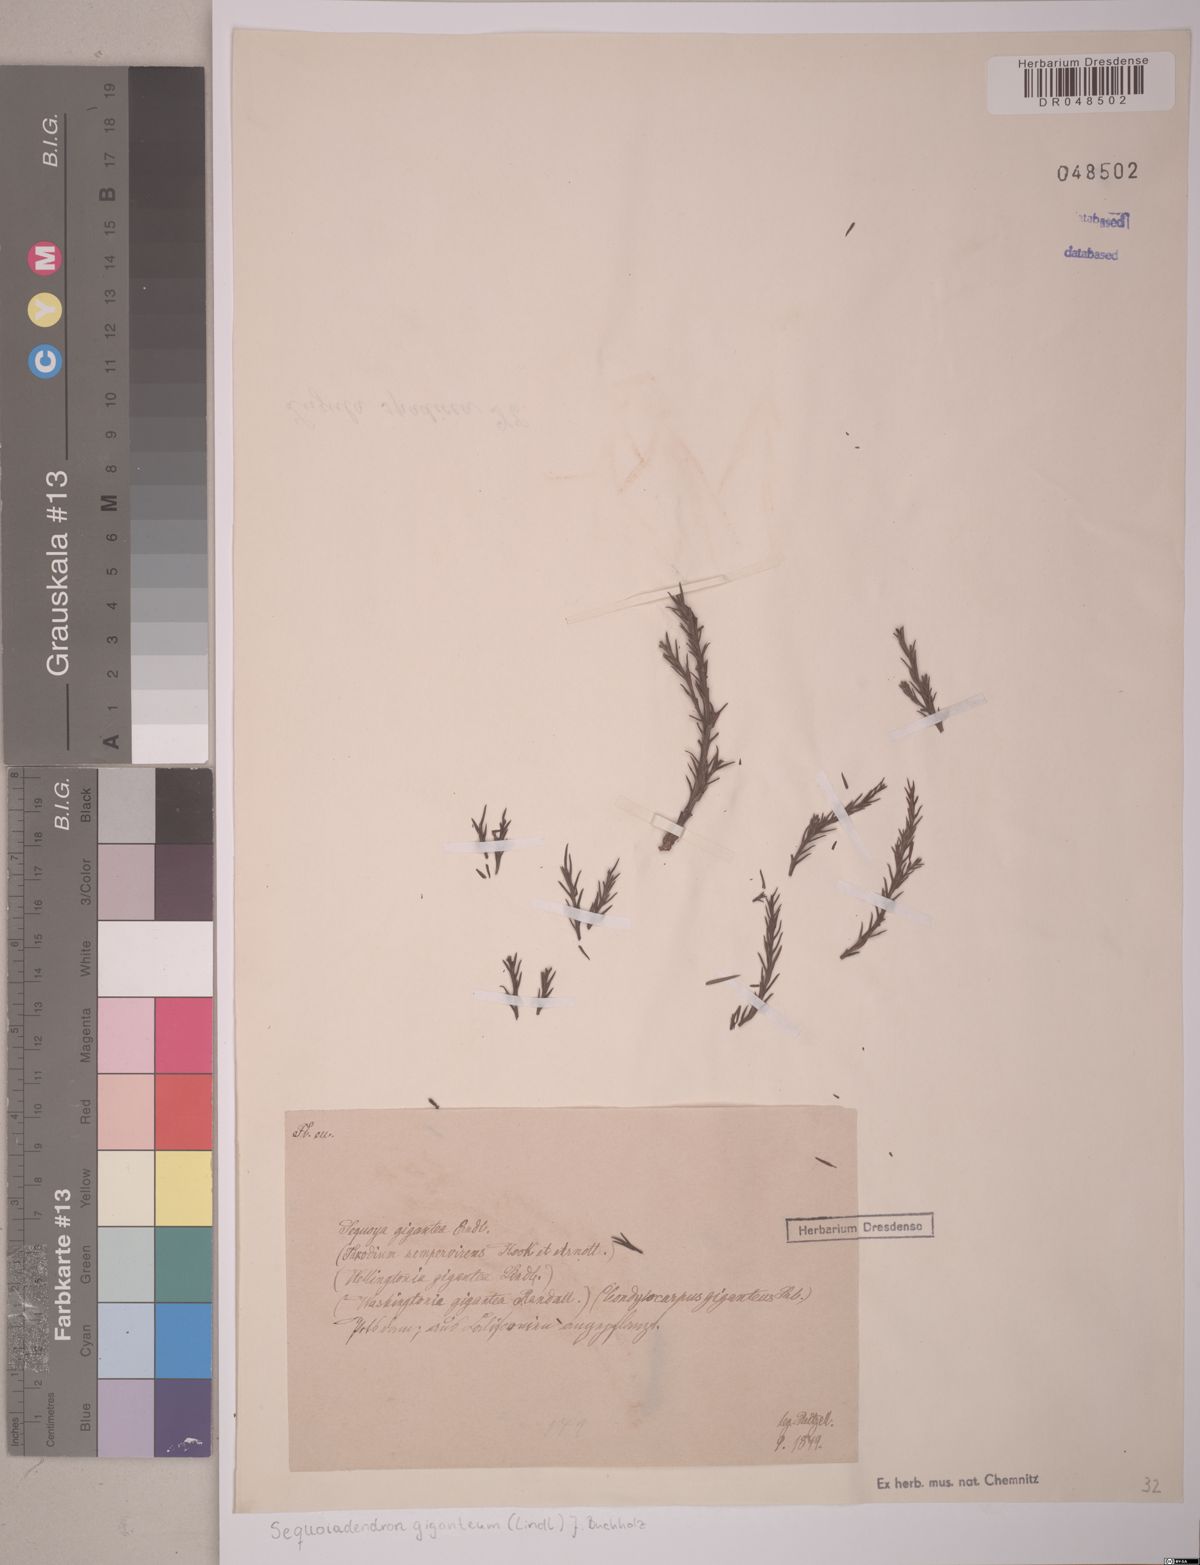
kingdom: Plantae
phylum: Tracheophyta
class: Pinopsida
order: Pinales
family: Cupressaceae
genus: Sequoiadendron
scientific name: Sequoiadendron giganteum
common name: Wellingtonia
